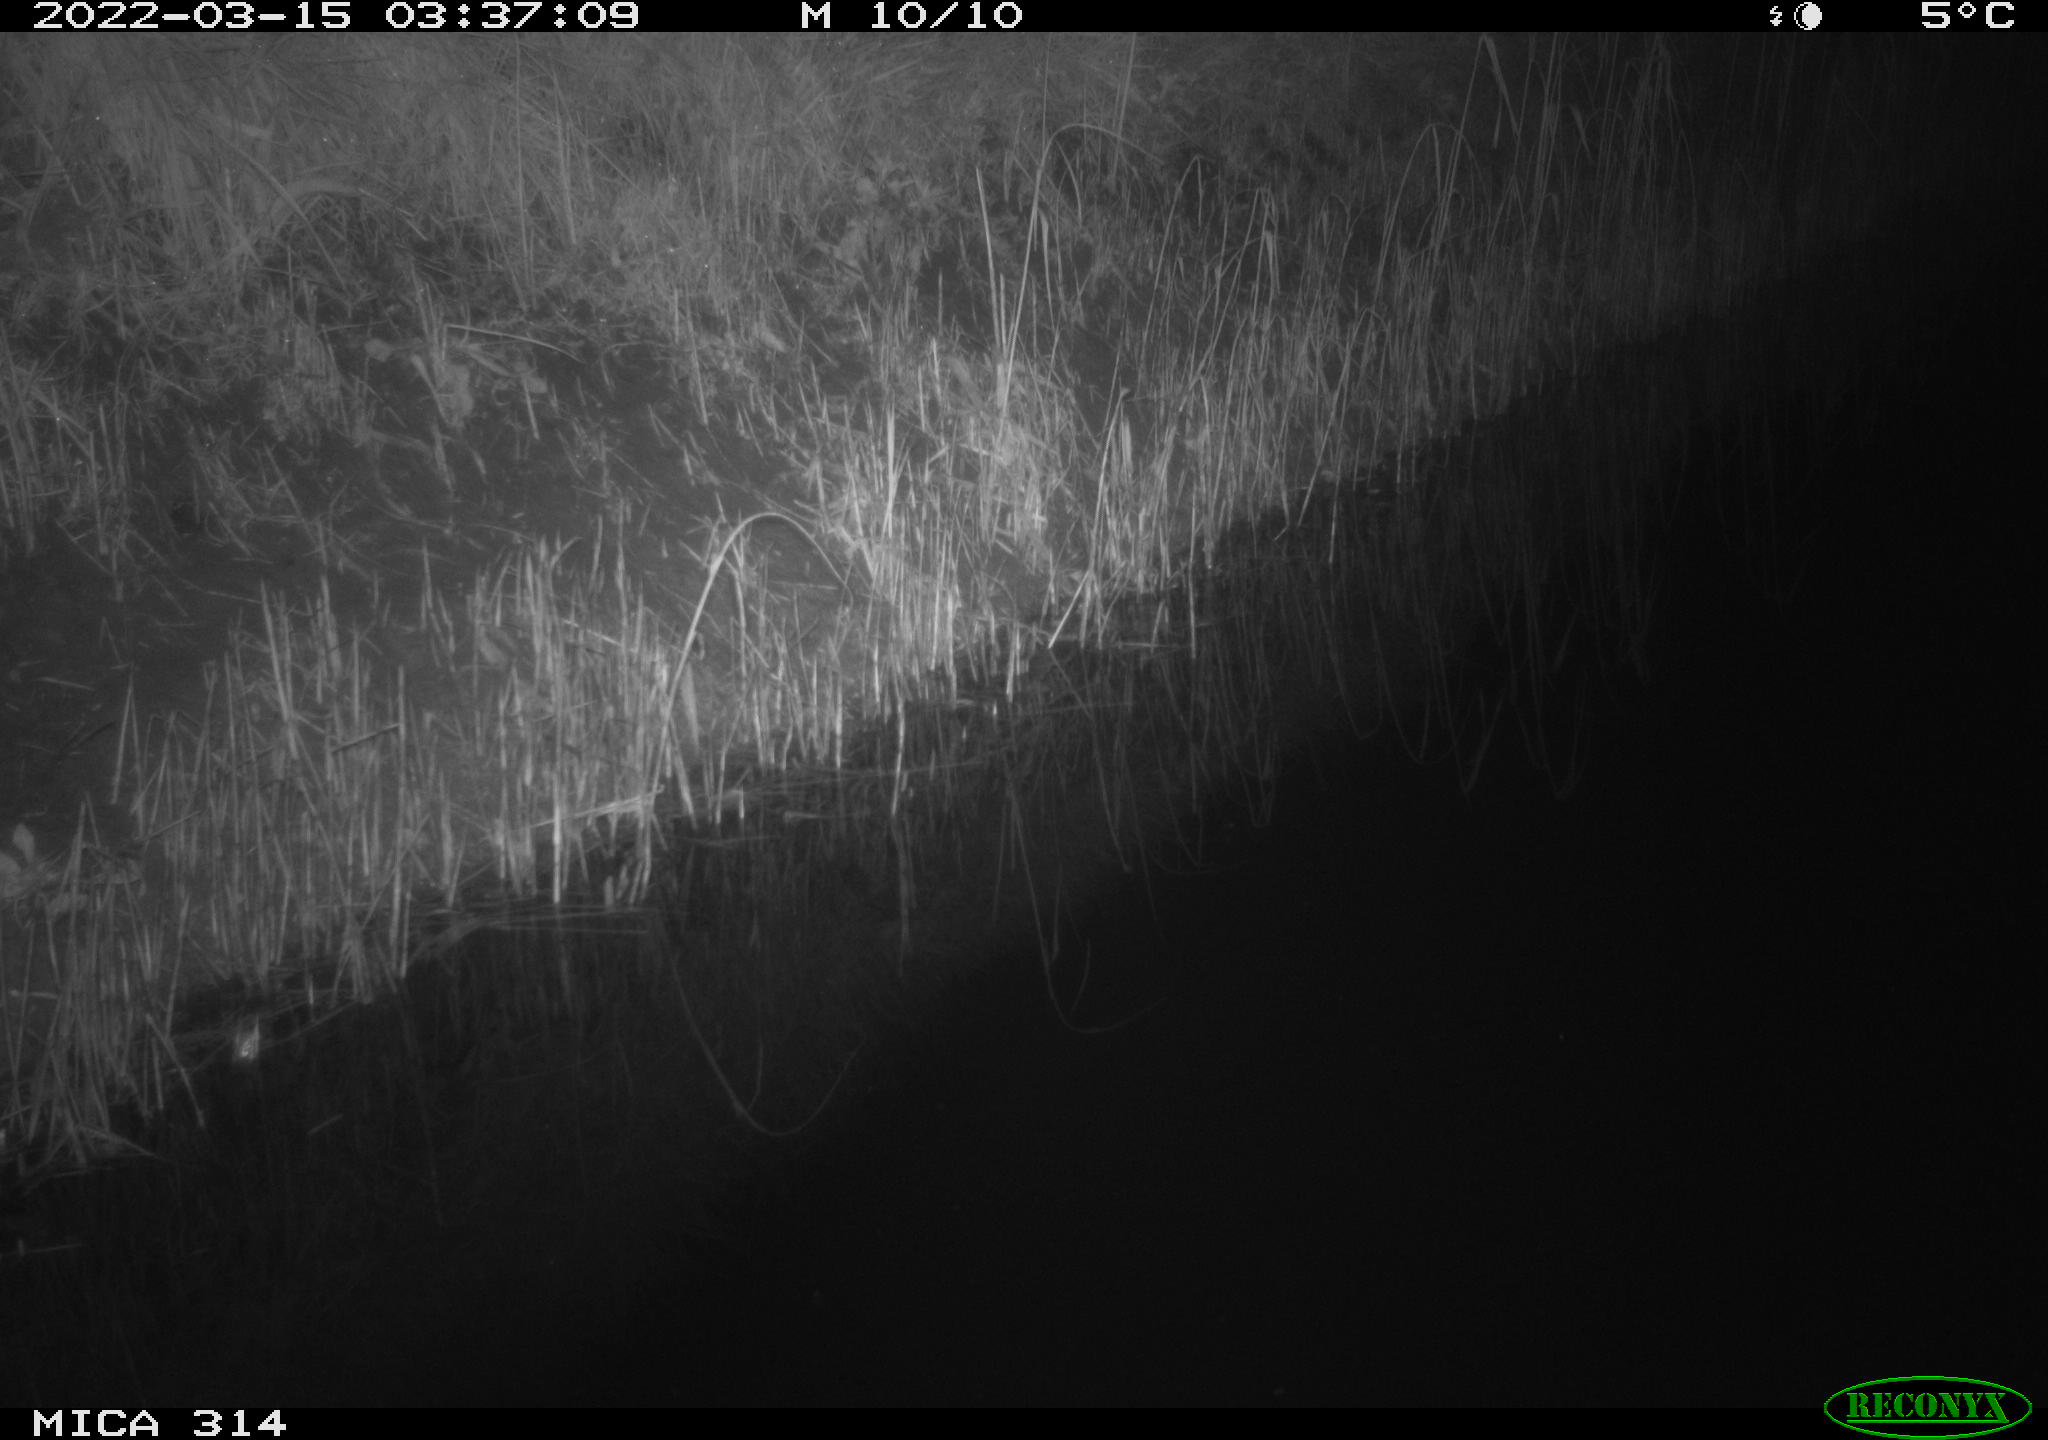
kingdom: Animalia
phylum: Chordata
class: Mammalia
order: Rodentia
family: Muridae
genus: Rattus
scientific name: Rattus norvegicus
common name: Brown rat
